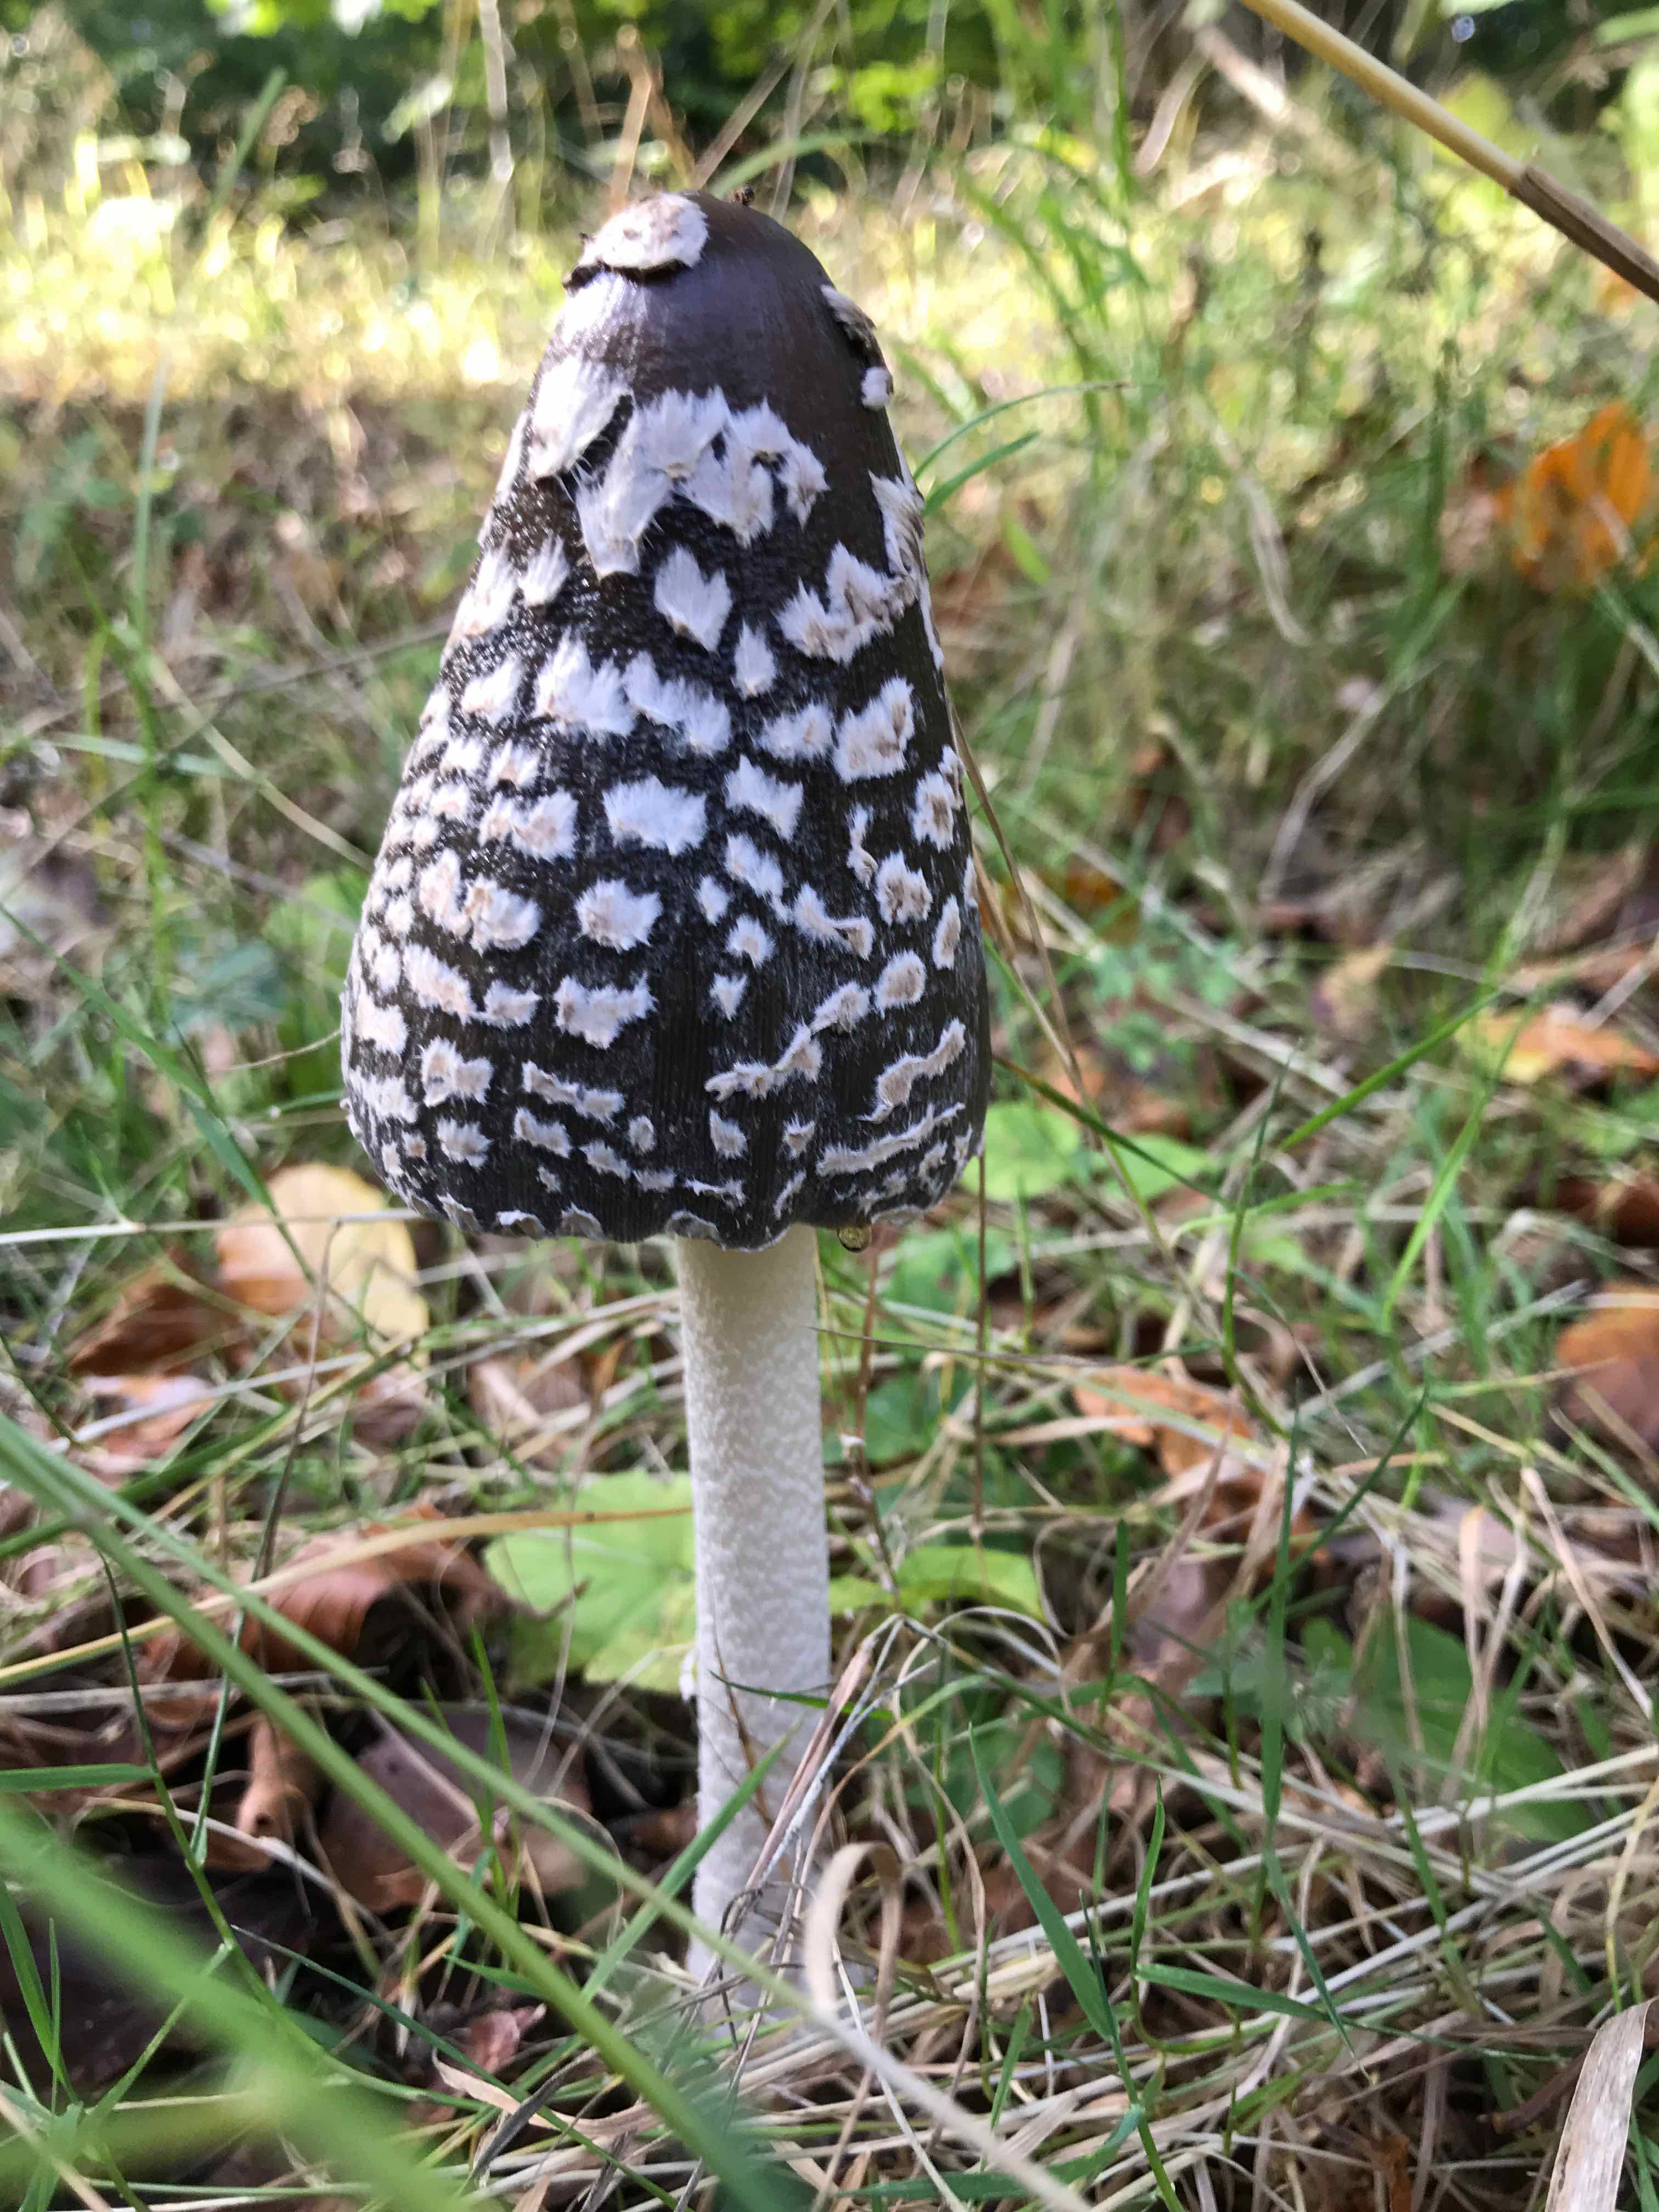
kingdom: Fungi
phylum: Basidiomycota
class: Agaricomycetes
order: Agaricales
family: Psathyrellaceae
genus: Coprinopsis
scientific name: Coprinopsis picacea
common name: skade-blækhat
